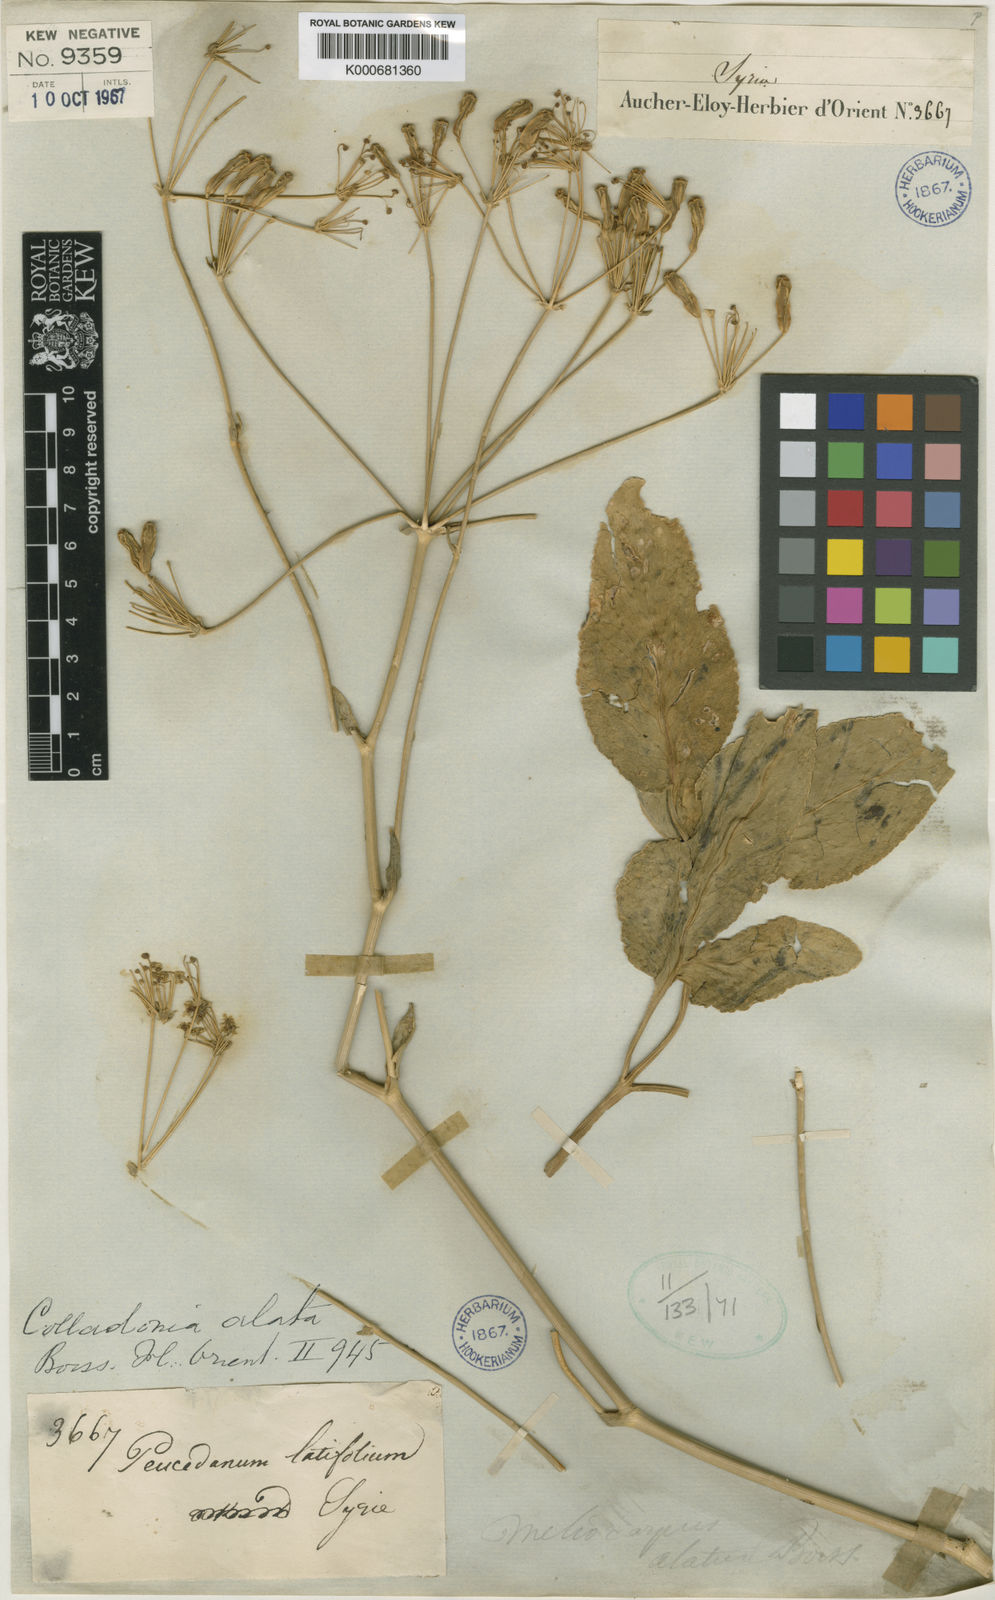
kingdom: Plantae
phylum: Tracheophyta
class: Magnoliopsida
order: Apiales
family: Apiaceae
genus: Heptaptera
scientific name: Heptaptera alata
